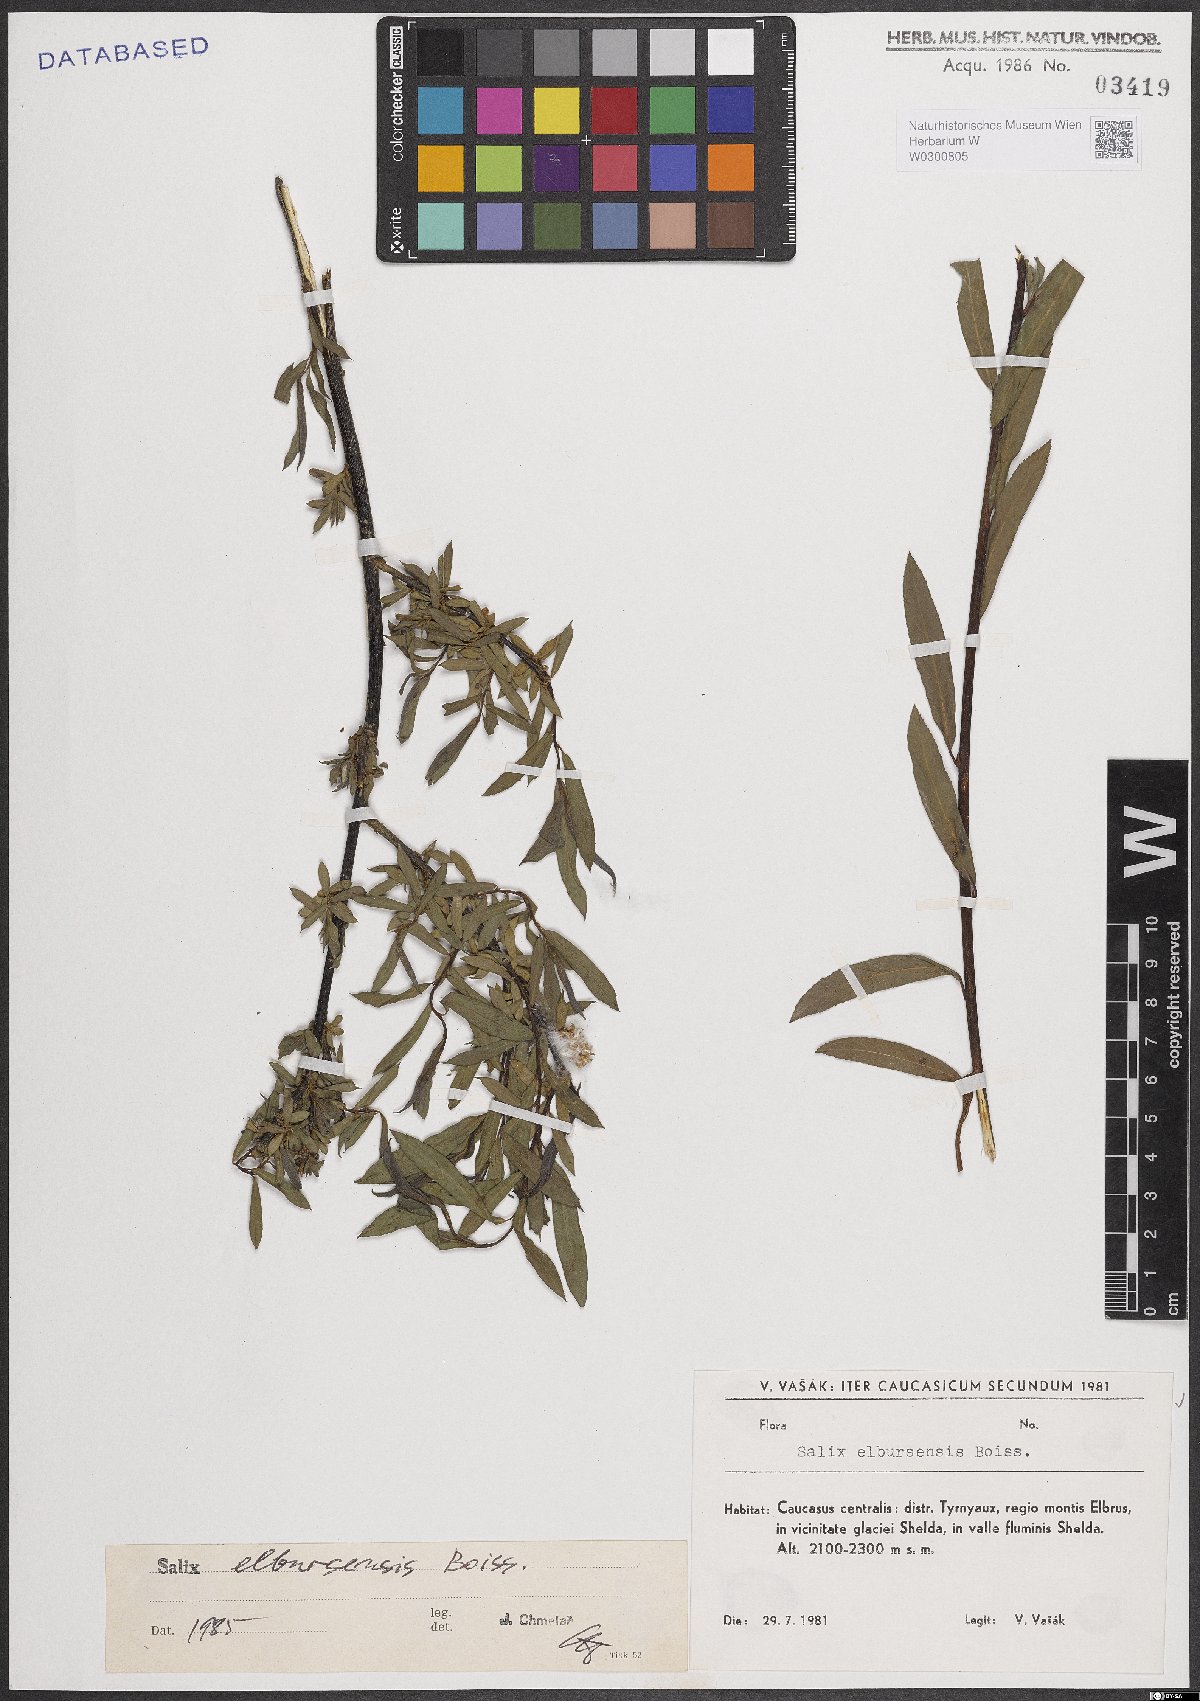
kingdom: Plantae
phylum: Tracheophyta
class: Magnoliopsida
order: Malpighiales
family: Salicaceae
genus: Salix
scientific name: Salix elbursensis
